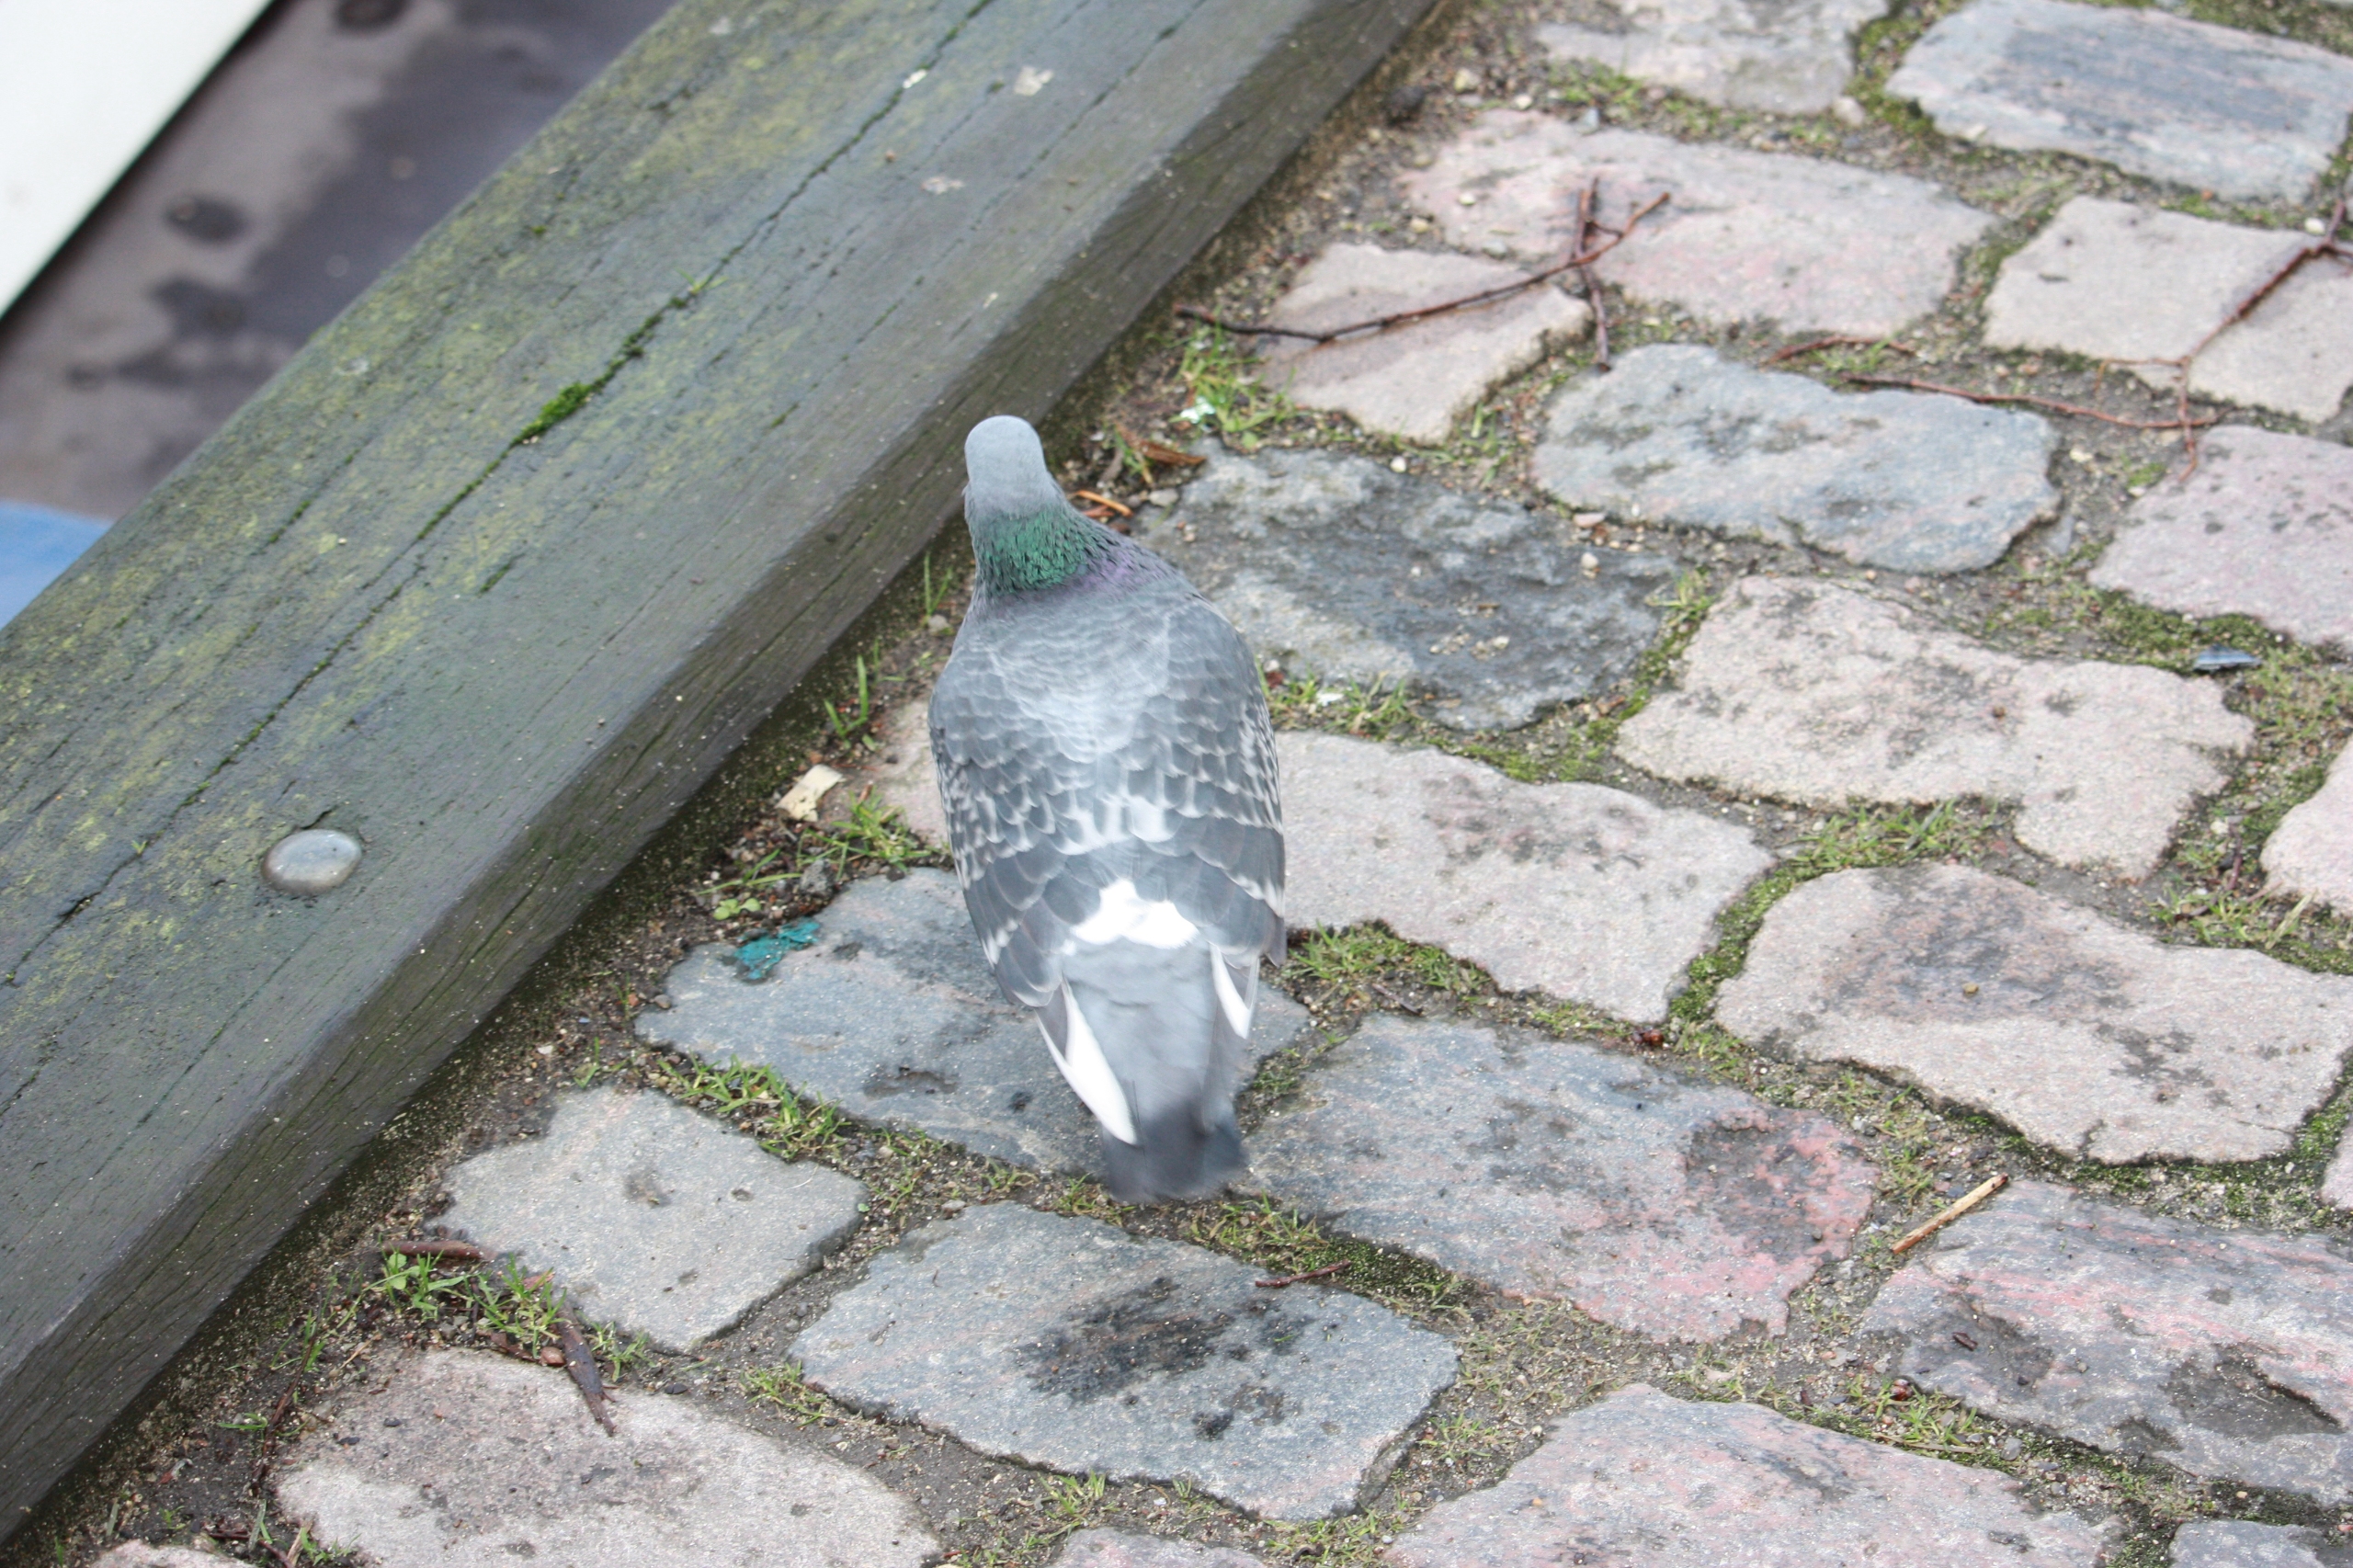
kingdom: Animalia
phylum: Chordata
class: Aves
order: Columbiformes
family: Columbidae
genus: Columba
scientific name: Columba livia
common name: Tamdue
